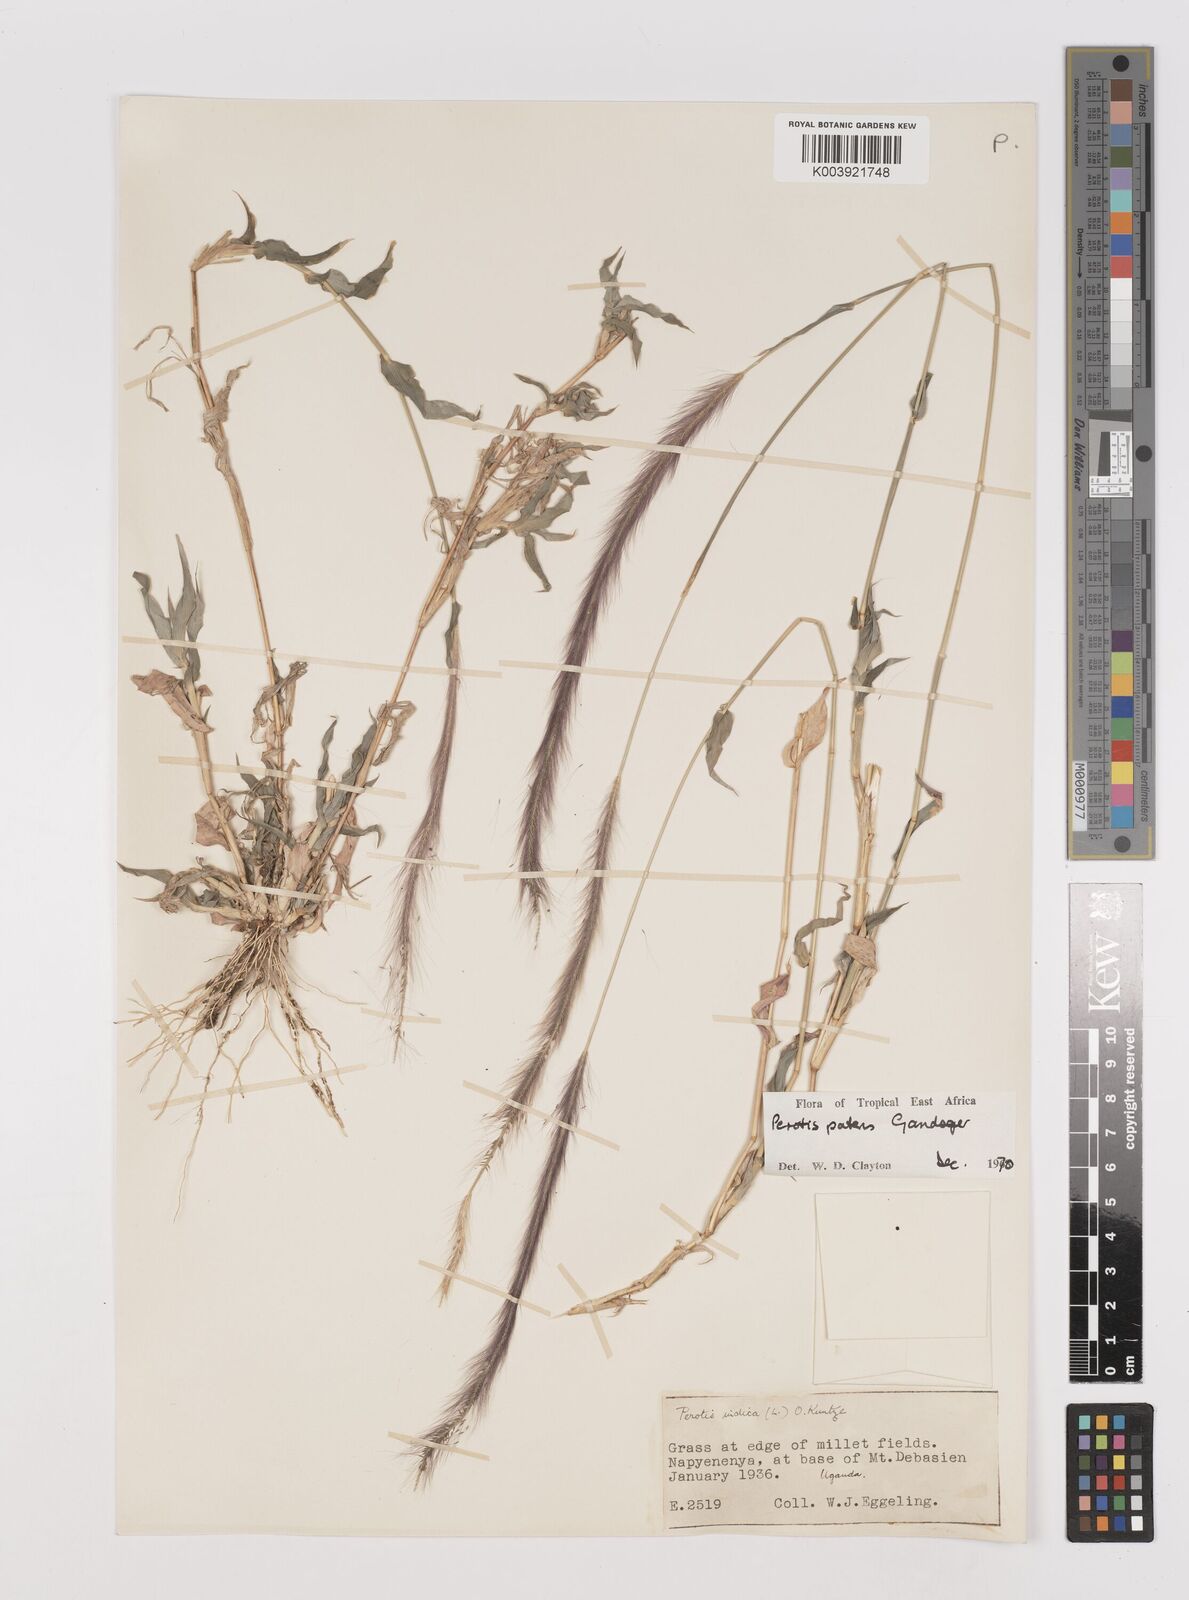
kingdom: Plantae
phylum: Tracheophyta
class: Liliopsida
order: Poales
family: Poaceae
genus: Perotis
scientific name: Perotis patens
